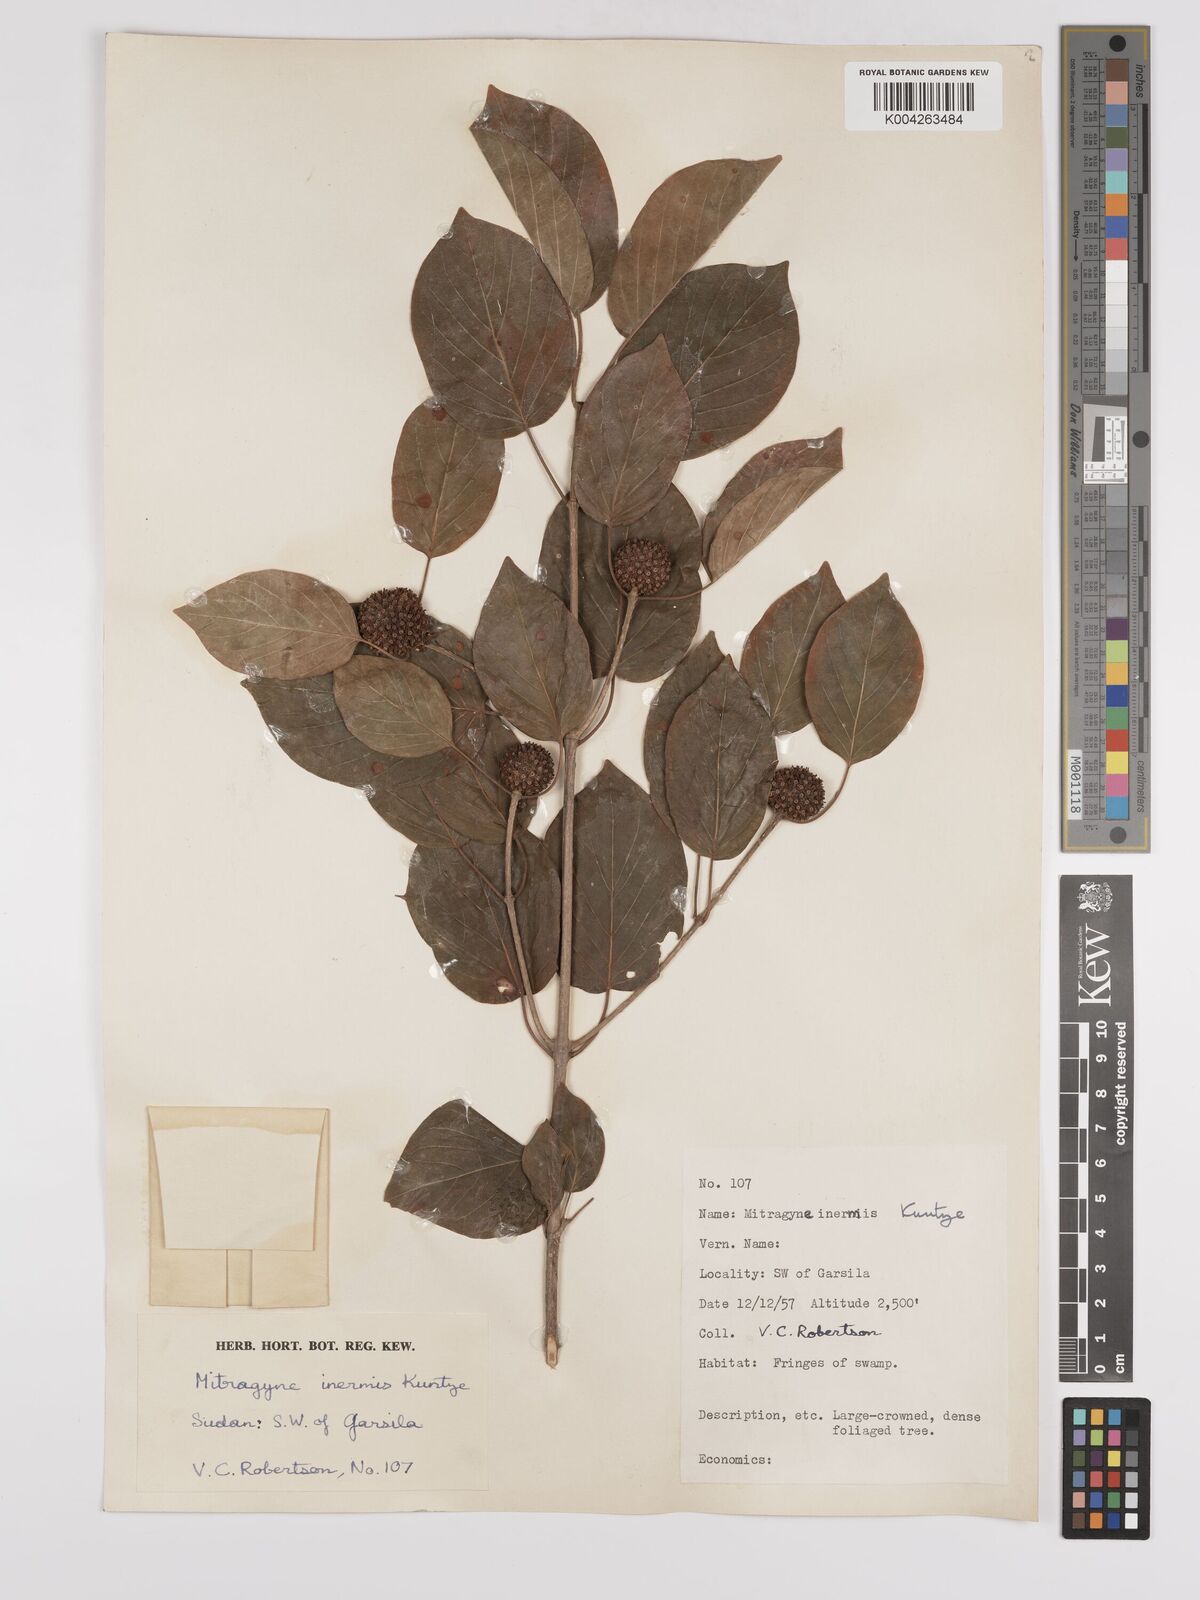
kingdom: Plantae
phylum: Tracheophyta
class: Magnoliopsida
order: Gentianales
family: Rubiaceae
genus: Mitragyna
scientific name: Mitragyna inermis
